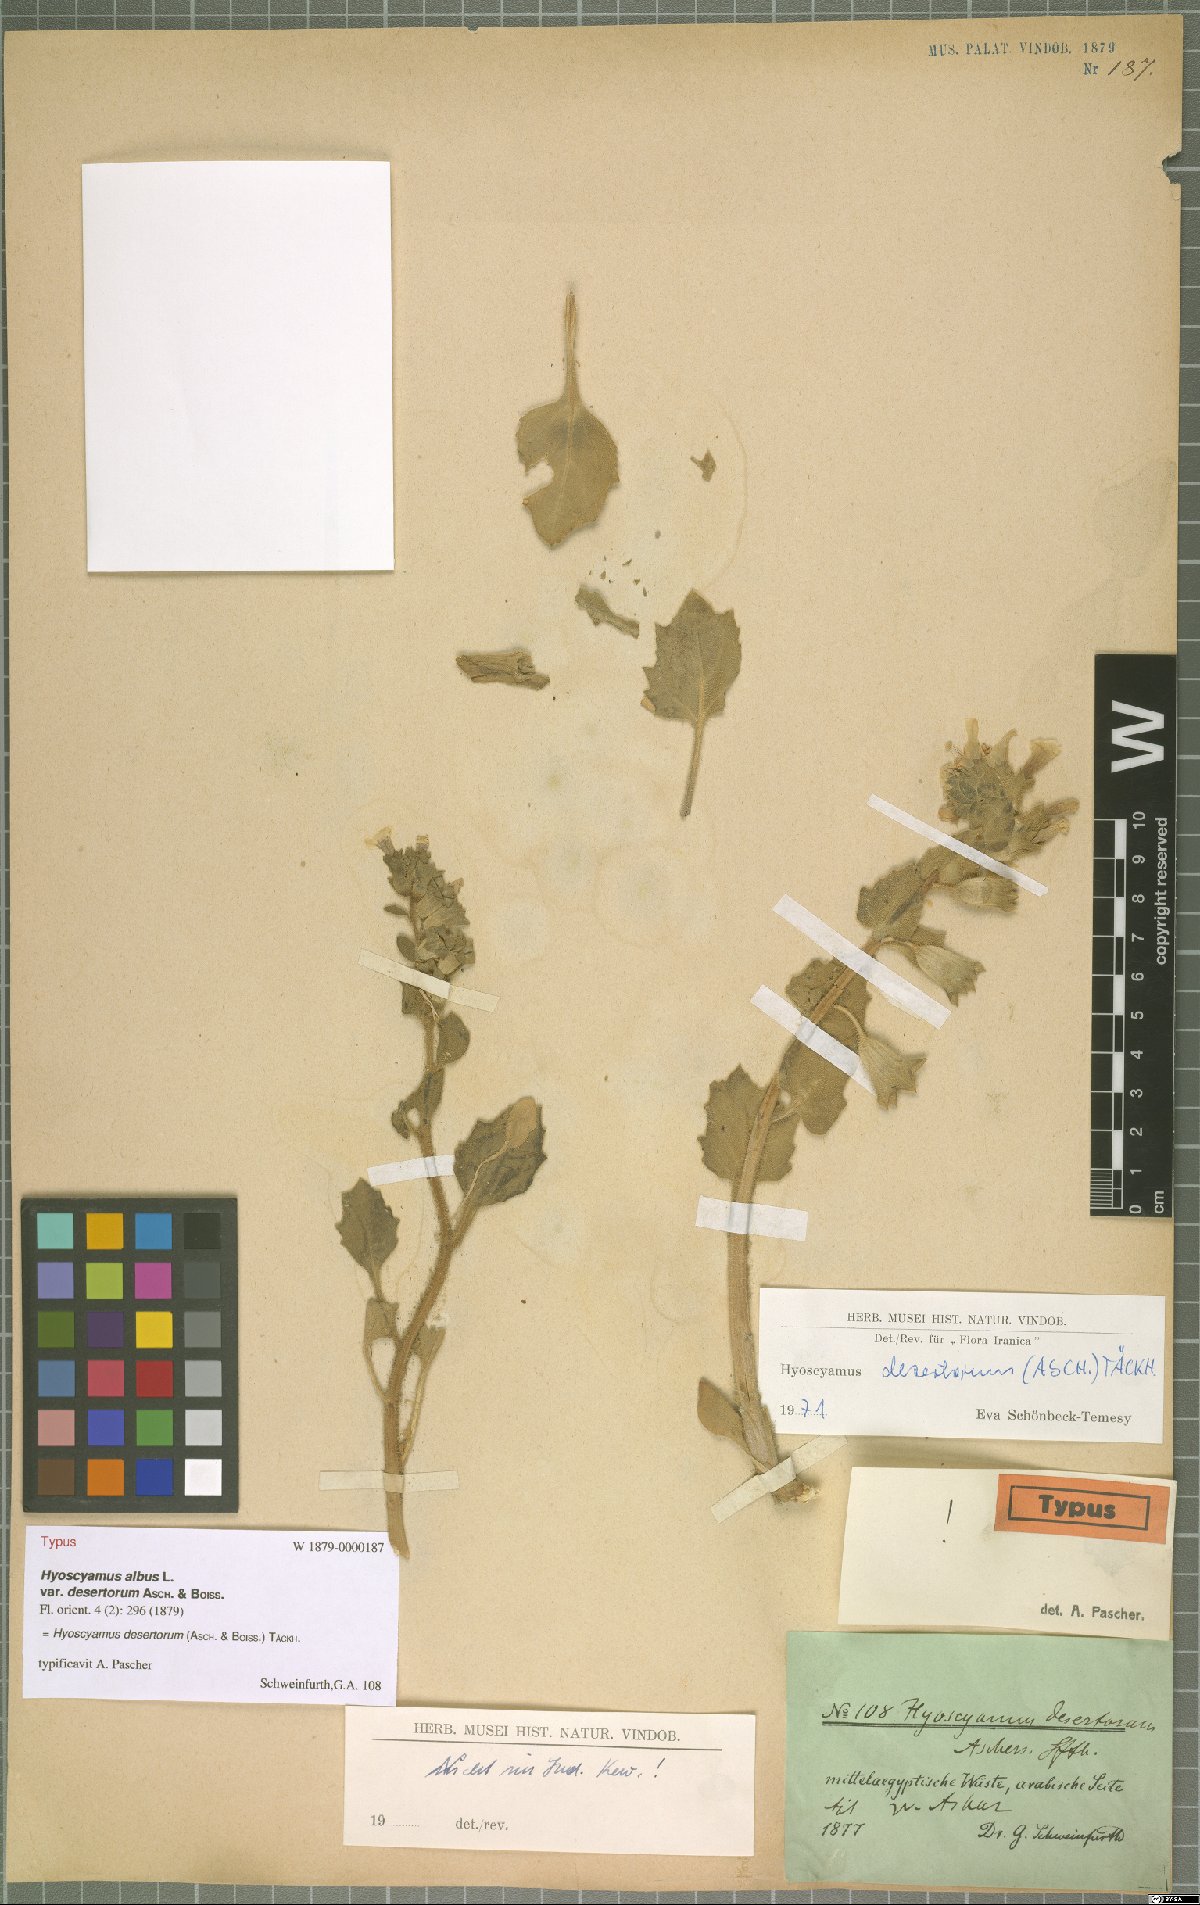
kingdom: Plantae
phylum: Tracheophyta
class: Magnoliopsida
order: Solanales
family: Solanaceae
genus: Hyoscyamus
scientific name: Hyoscyamus desertorum
